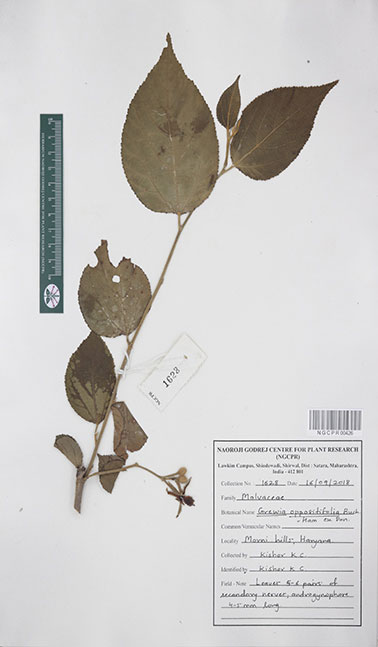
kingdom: Plantae
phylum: Tracheophyta
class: Magnoliopsida
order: Malvales
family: Malvaceae
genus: Grewia
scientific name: Grewia oppositifolia
